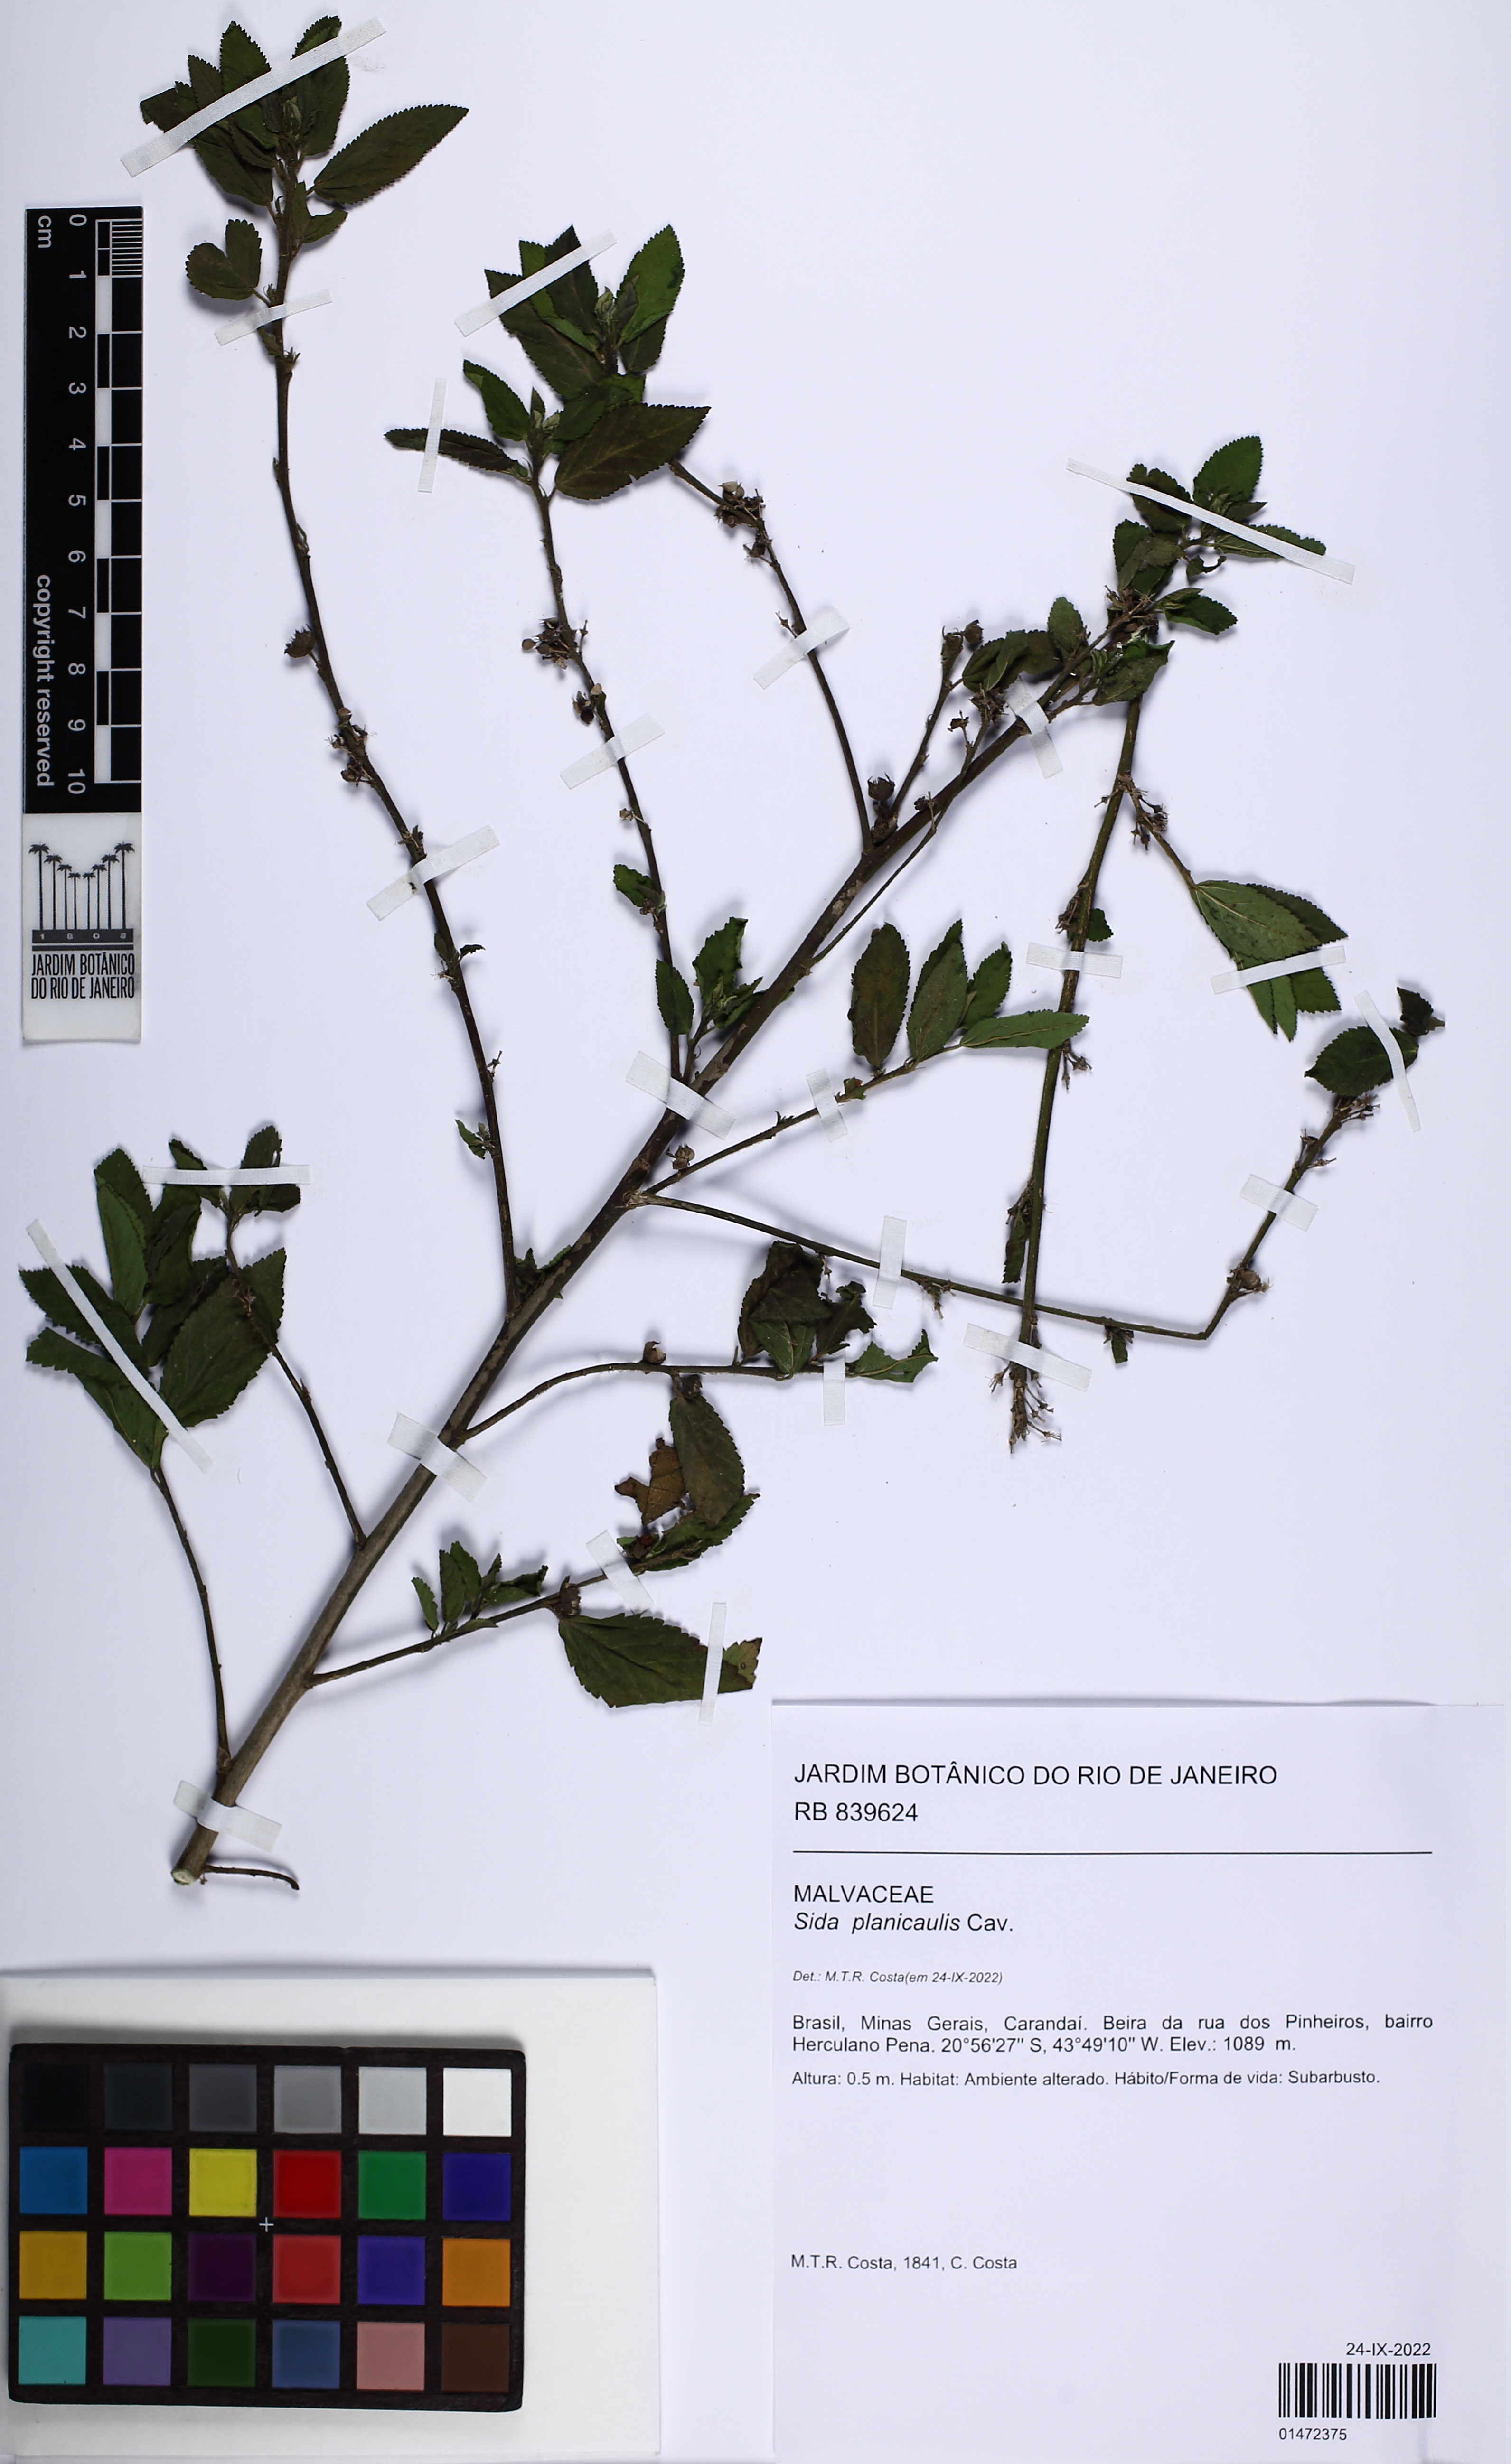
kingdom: Plantae
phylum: Tracheophyta
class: Magnoliopsida
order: Malvales
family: Malvaceae
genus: Sida
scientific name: Sida planicaulis
